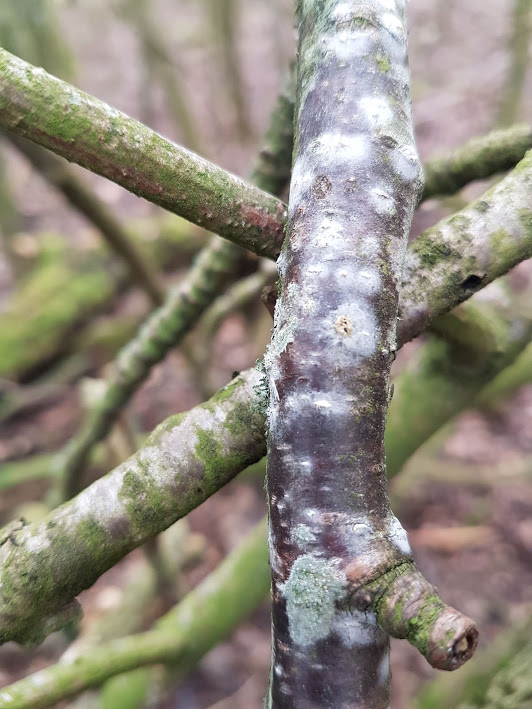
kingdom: Fungi
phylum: Basidiomycota
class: Agaricomycetes
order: Corticiales
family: Corticiaceae
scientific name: Corticiaceae
